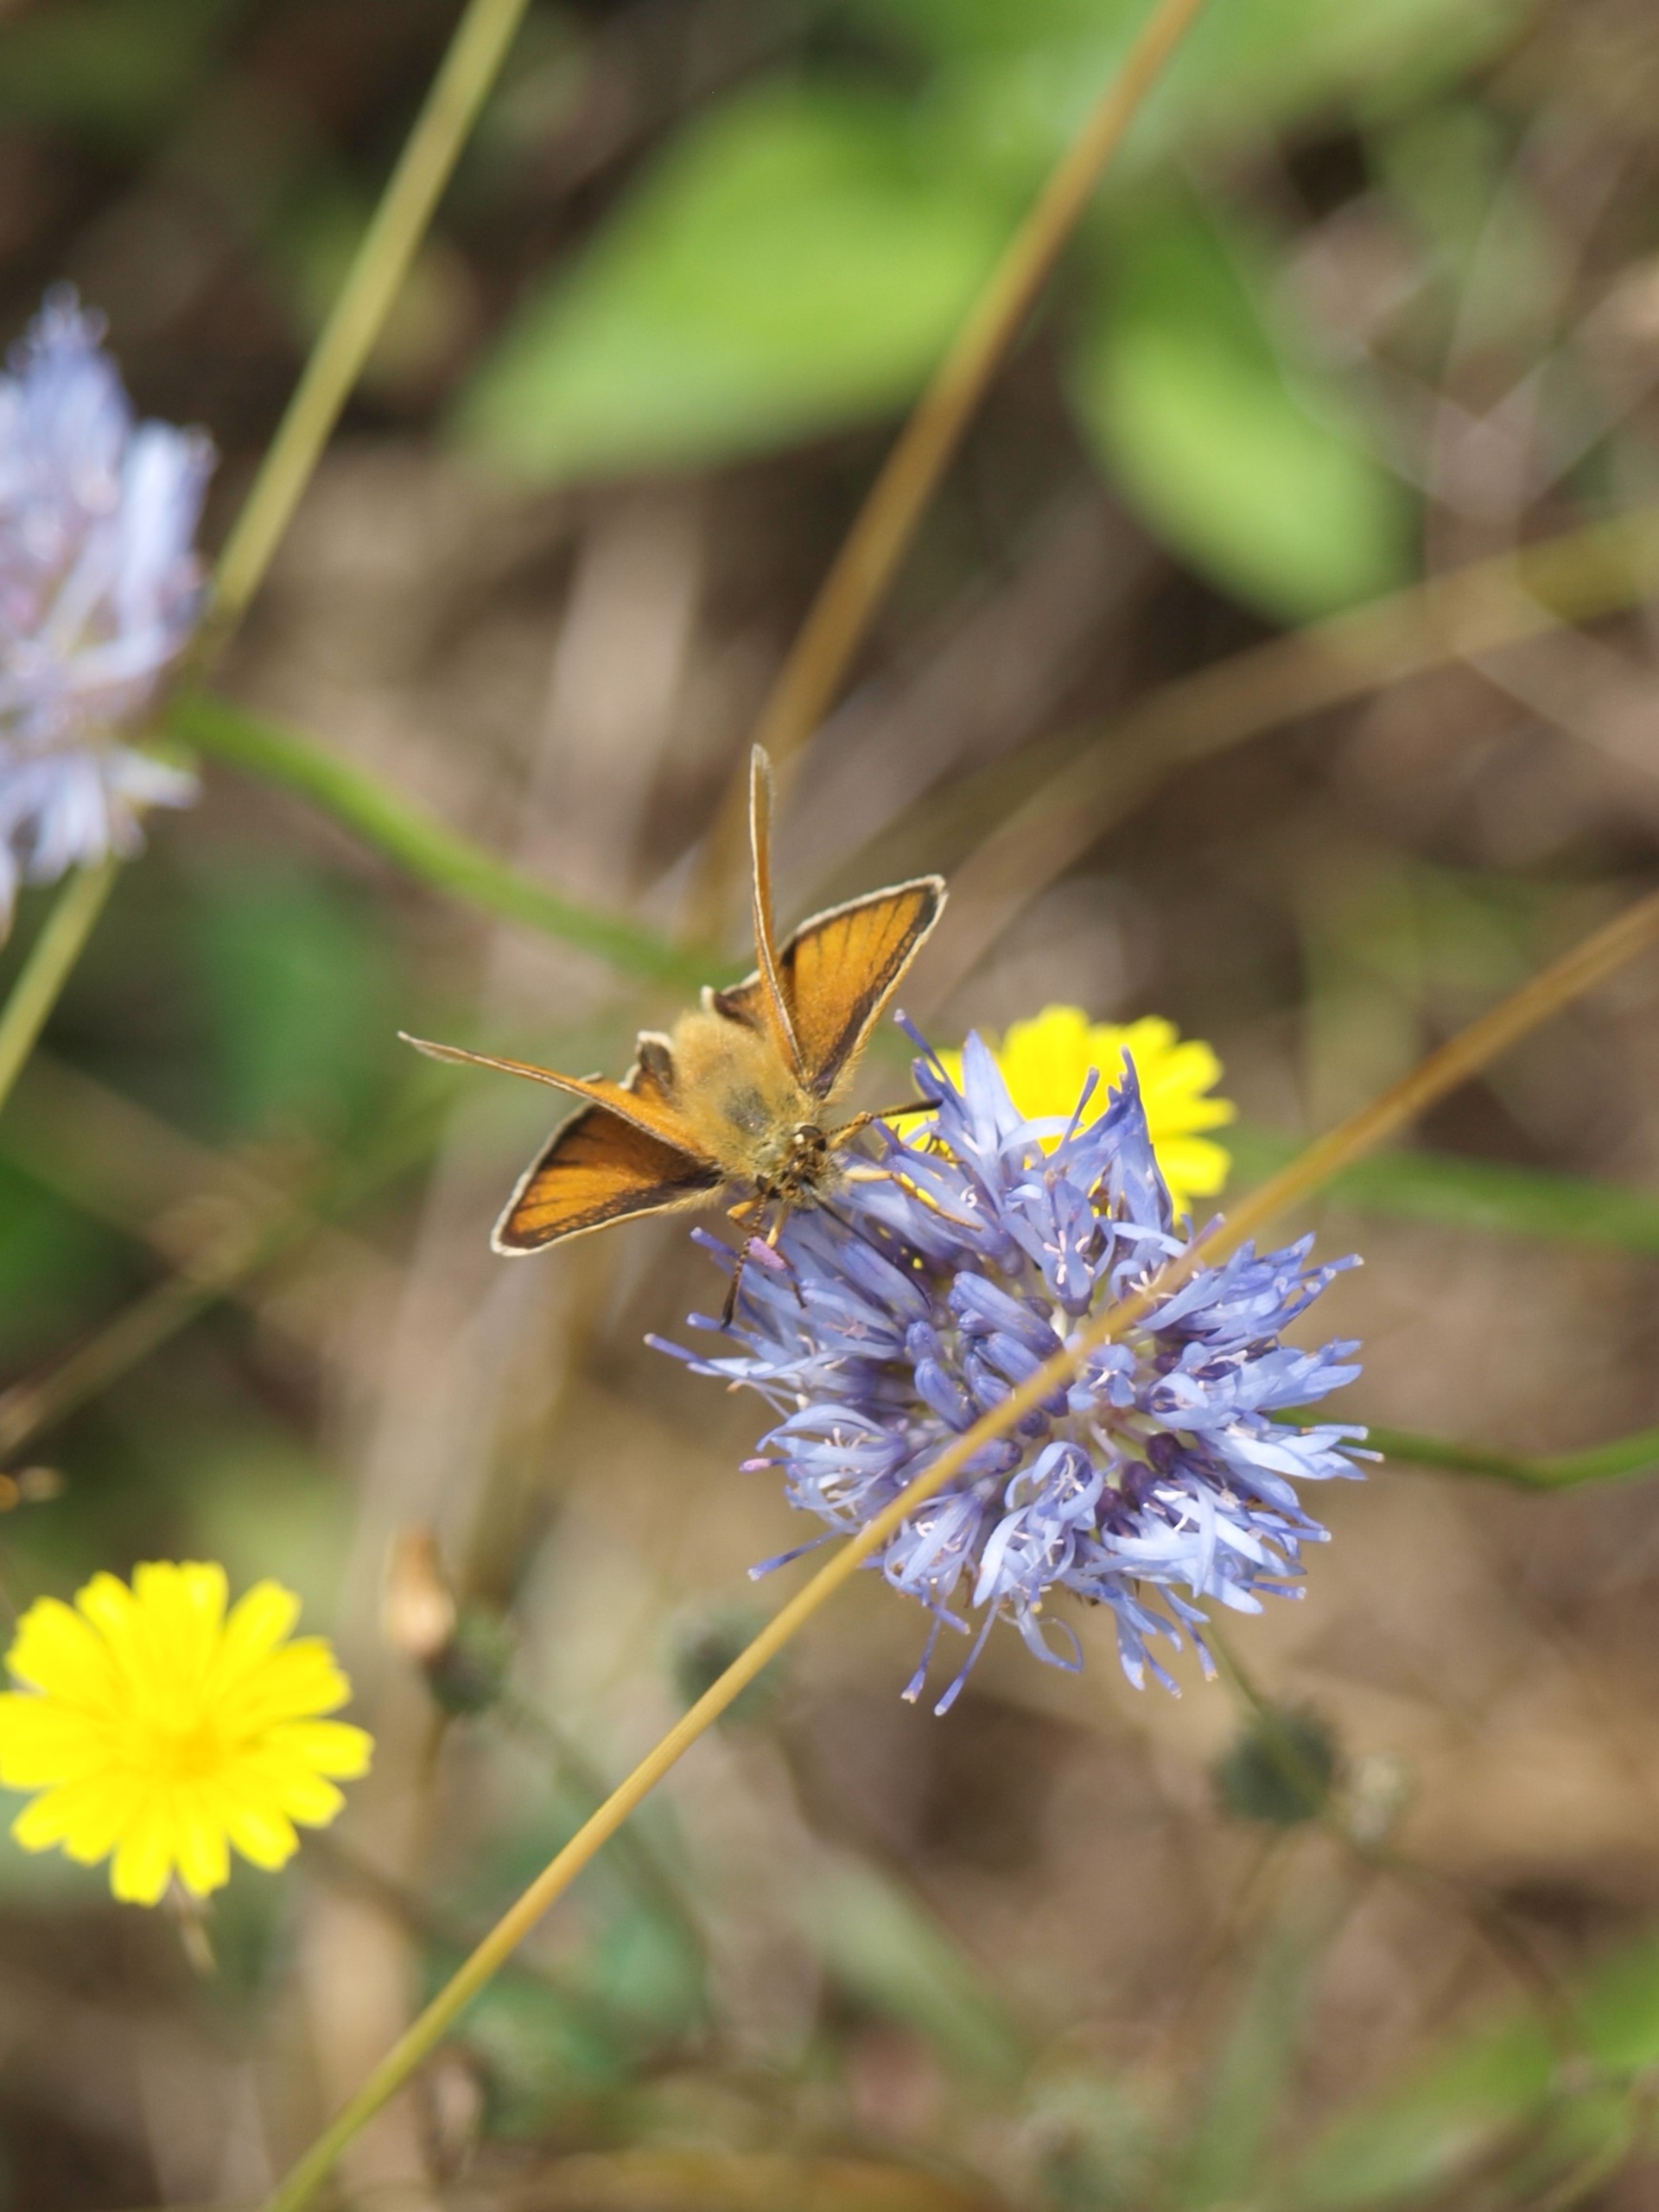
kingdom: Animalia
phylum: Arthropoda
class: Insecta
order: Lepidoptera
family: Hesperiidae
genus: Thymelicus
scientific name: Thymelicus lineola
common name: Stregbredpande
